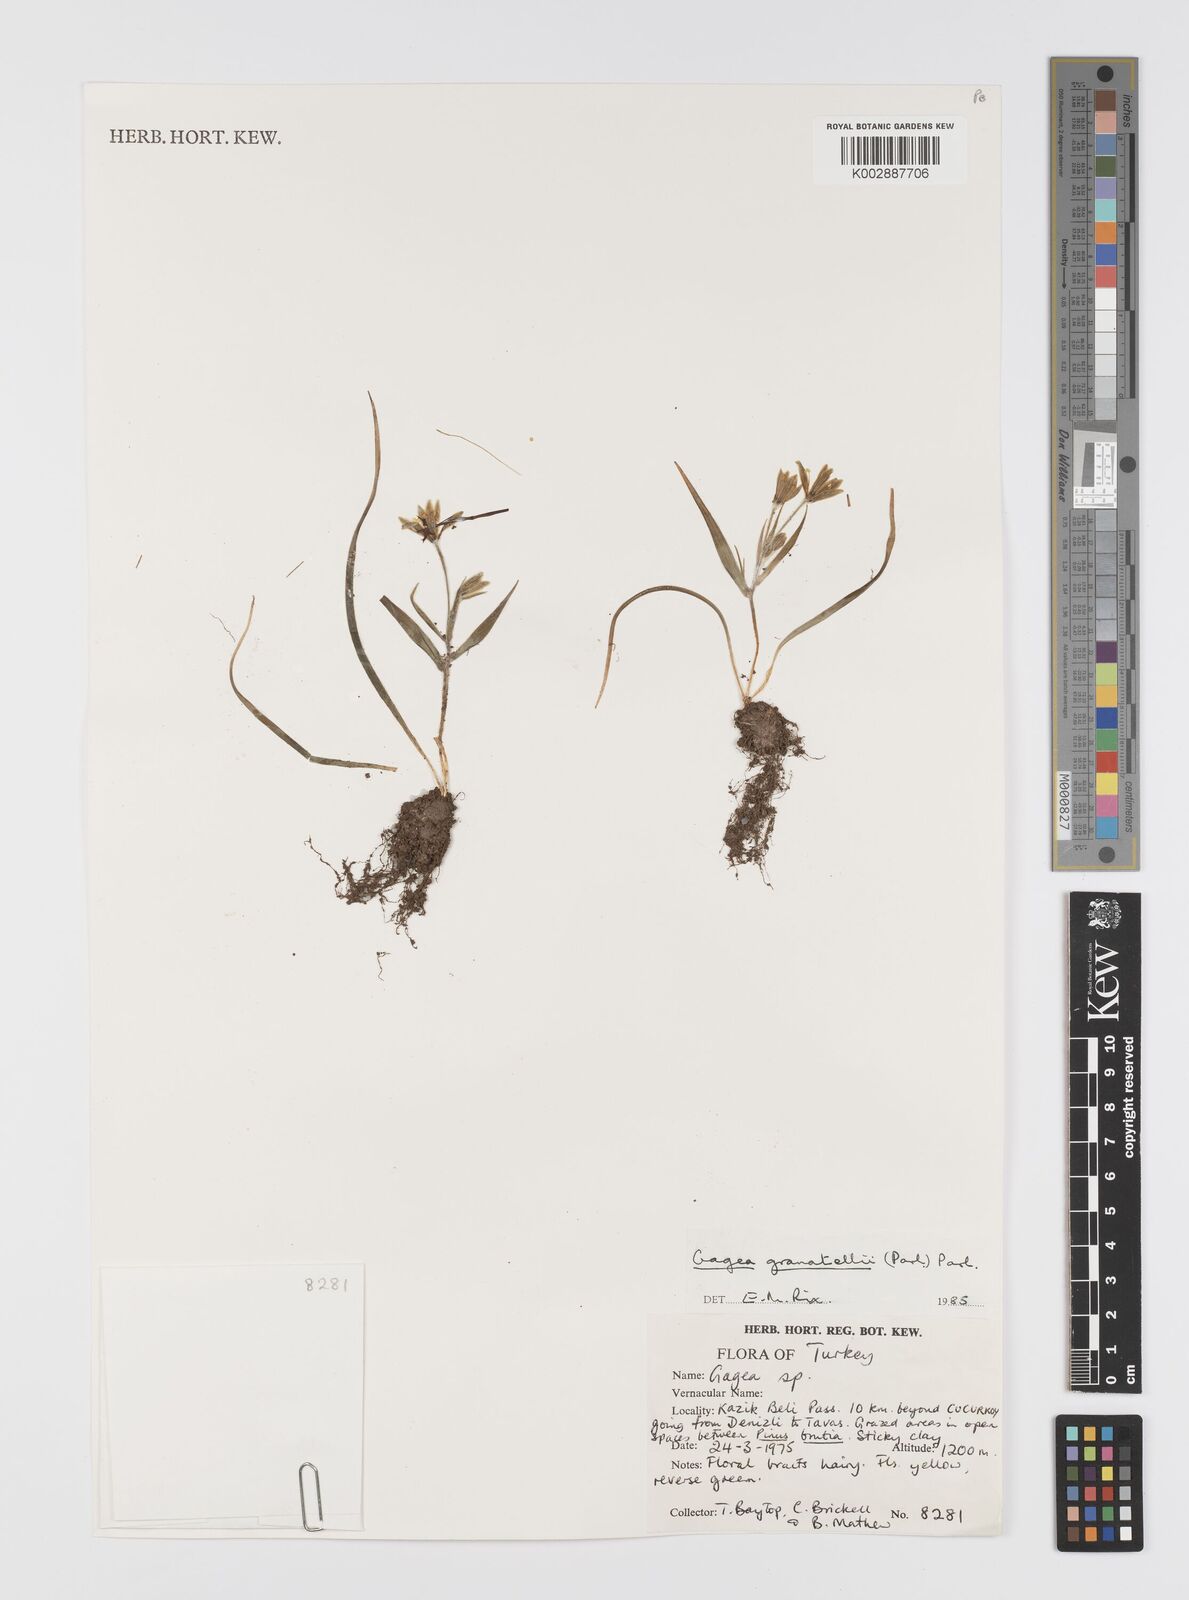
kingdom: Plantae
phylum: Tracheophyta
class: Liliopsida
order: Liliales
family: Liliaceae
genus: Gagea
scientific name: Gagea minima
